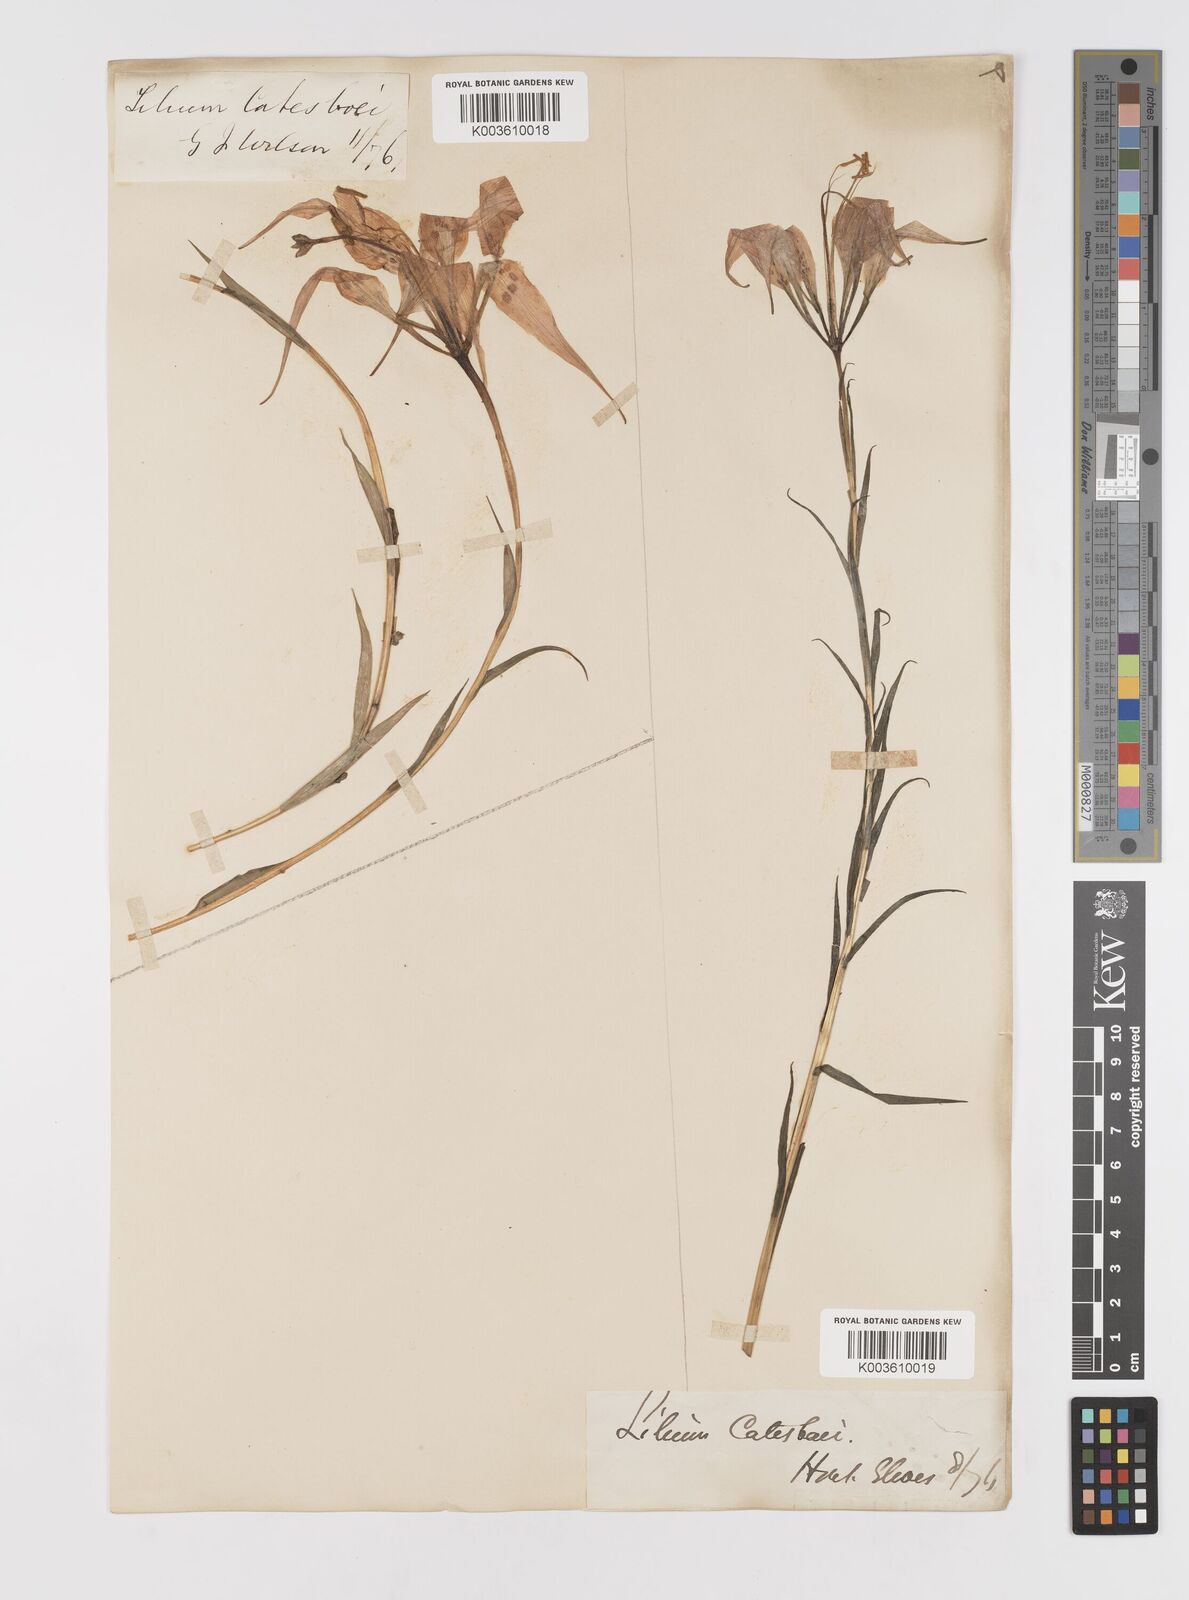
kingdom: Plantae
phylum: Tracheophyta
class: Liliopsida
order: Liliales
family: Liliaceae
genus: Lilium
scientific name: Lilium catesbaei
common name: Catesby's lily
